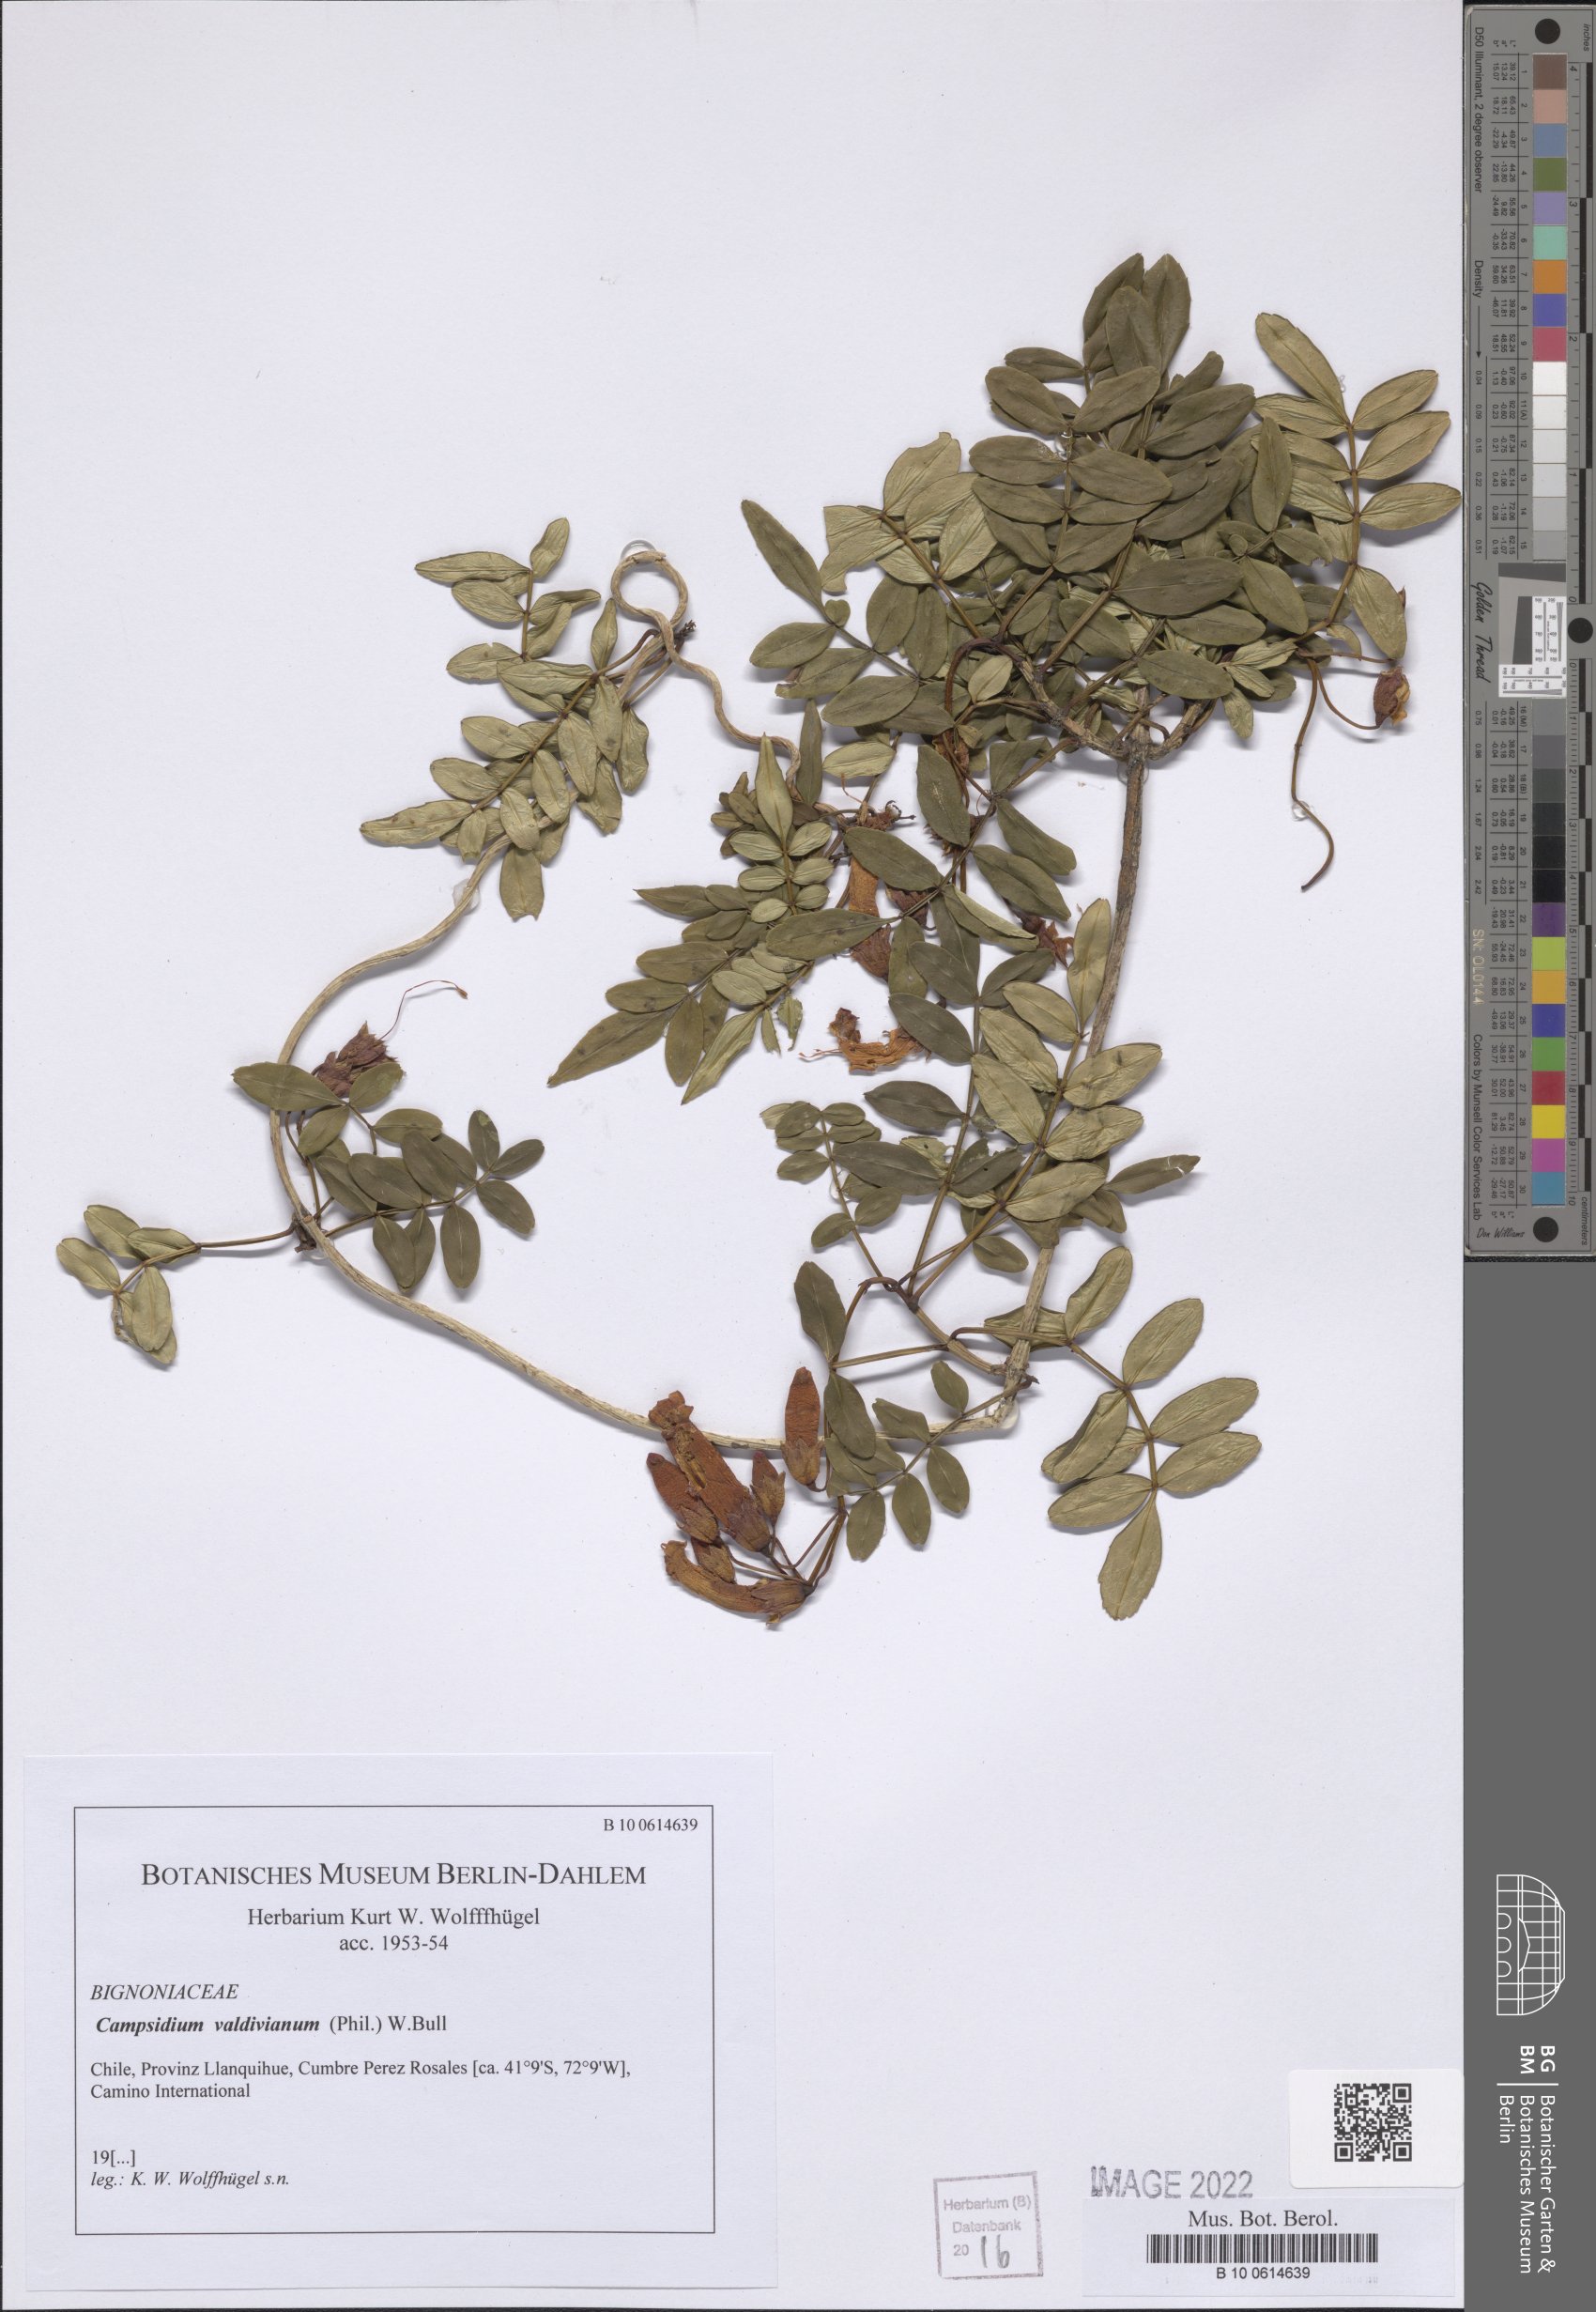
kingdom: Plantae
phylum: Tracheophyta
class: Magnoliopsida
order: Lamiales
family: Bignoniaceae
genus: Campsidium
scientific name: Campsidium valdivianum
